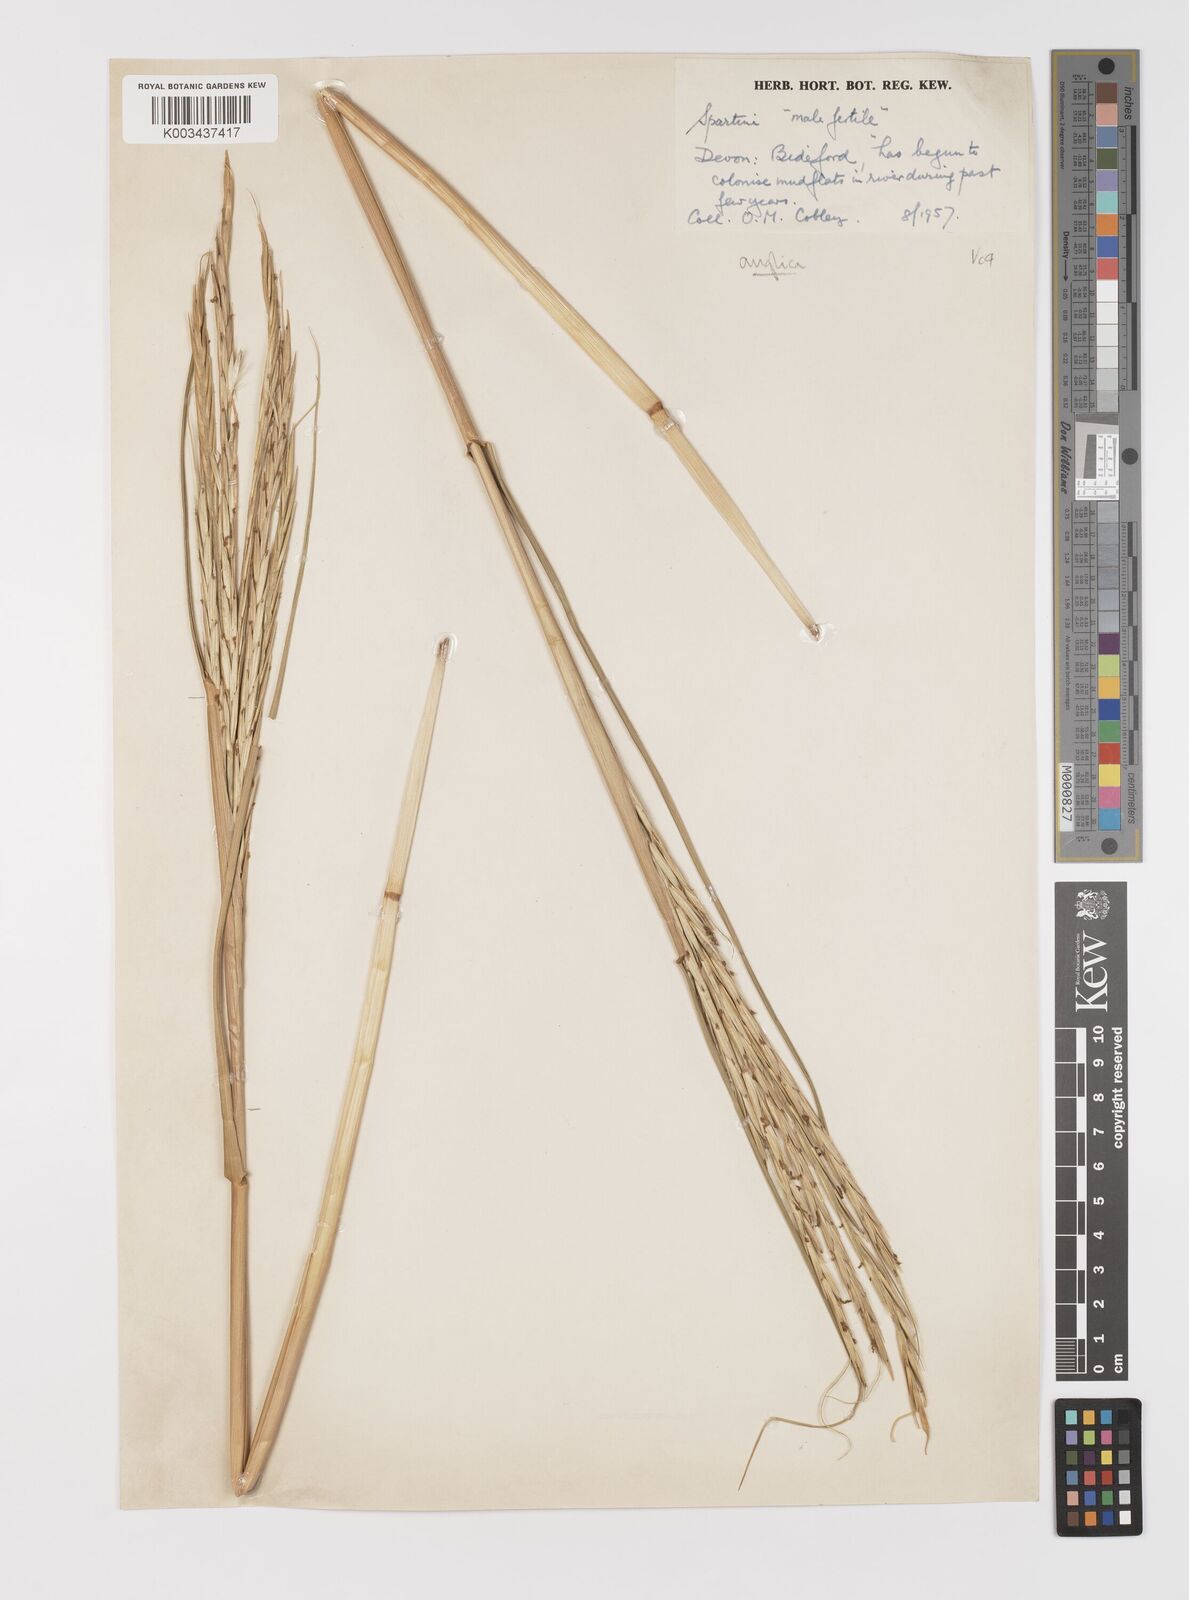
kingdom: Plantae
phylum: Tracheophyta
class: Liliopsida
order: Poales
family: Poaceae
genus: Sporobolus
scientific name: Sporobolus anglicus
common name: English cordgrass
